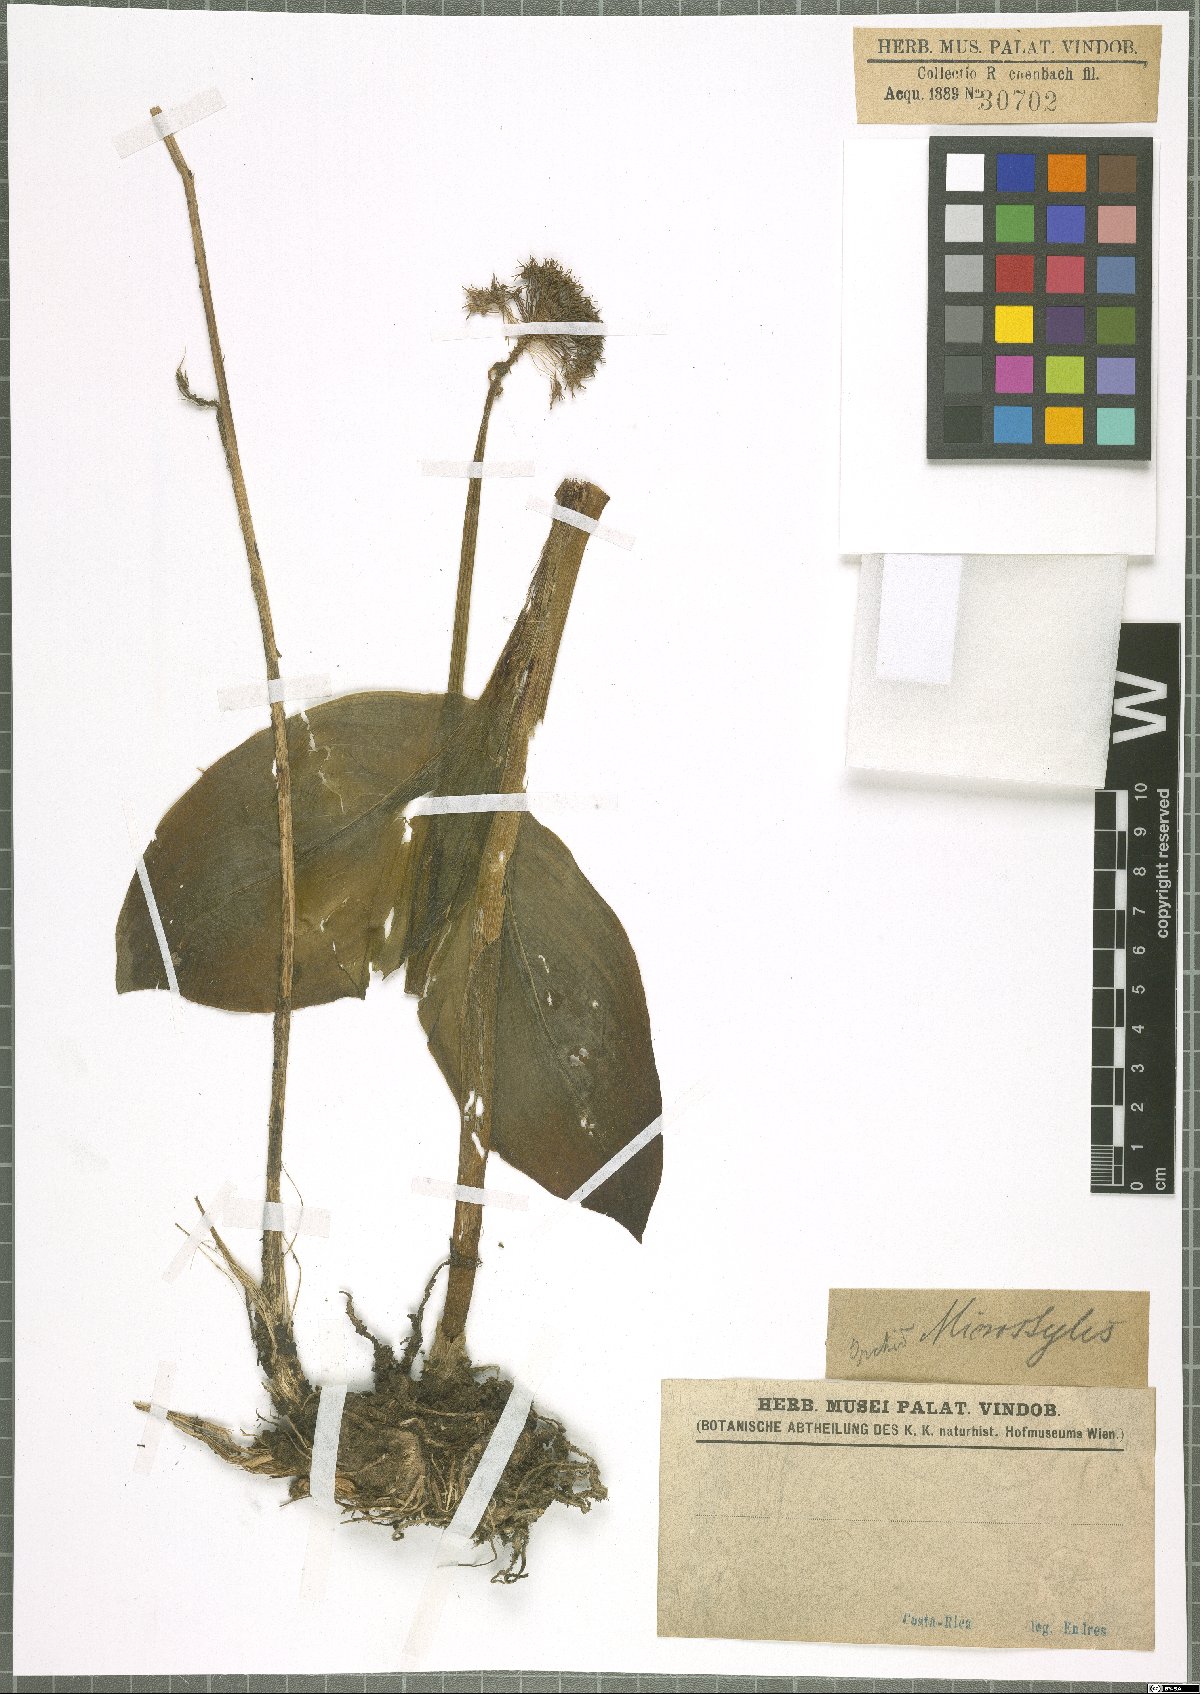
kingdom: Plantae
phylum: Tracheophyta
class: Liliopsida
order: Asparagales
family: Orchidaceae
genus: Microstylis
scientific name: Microstylis
